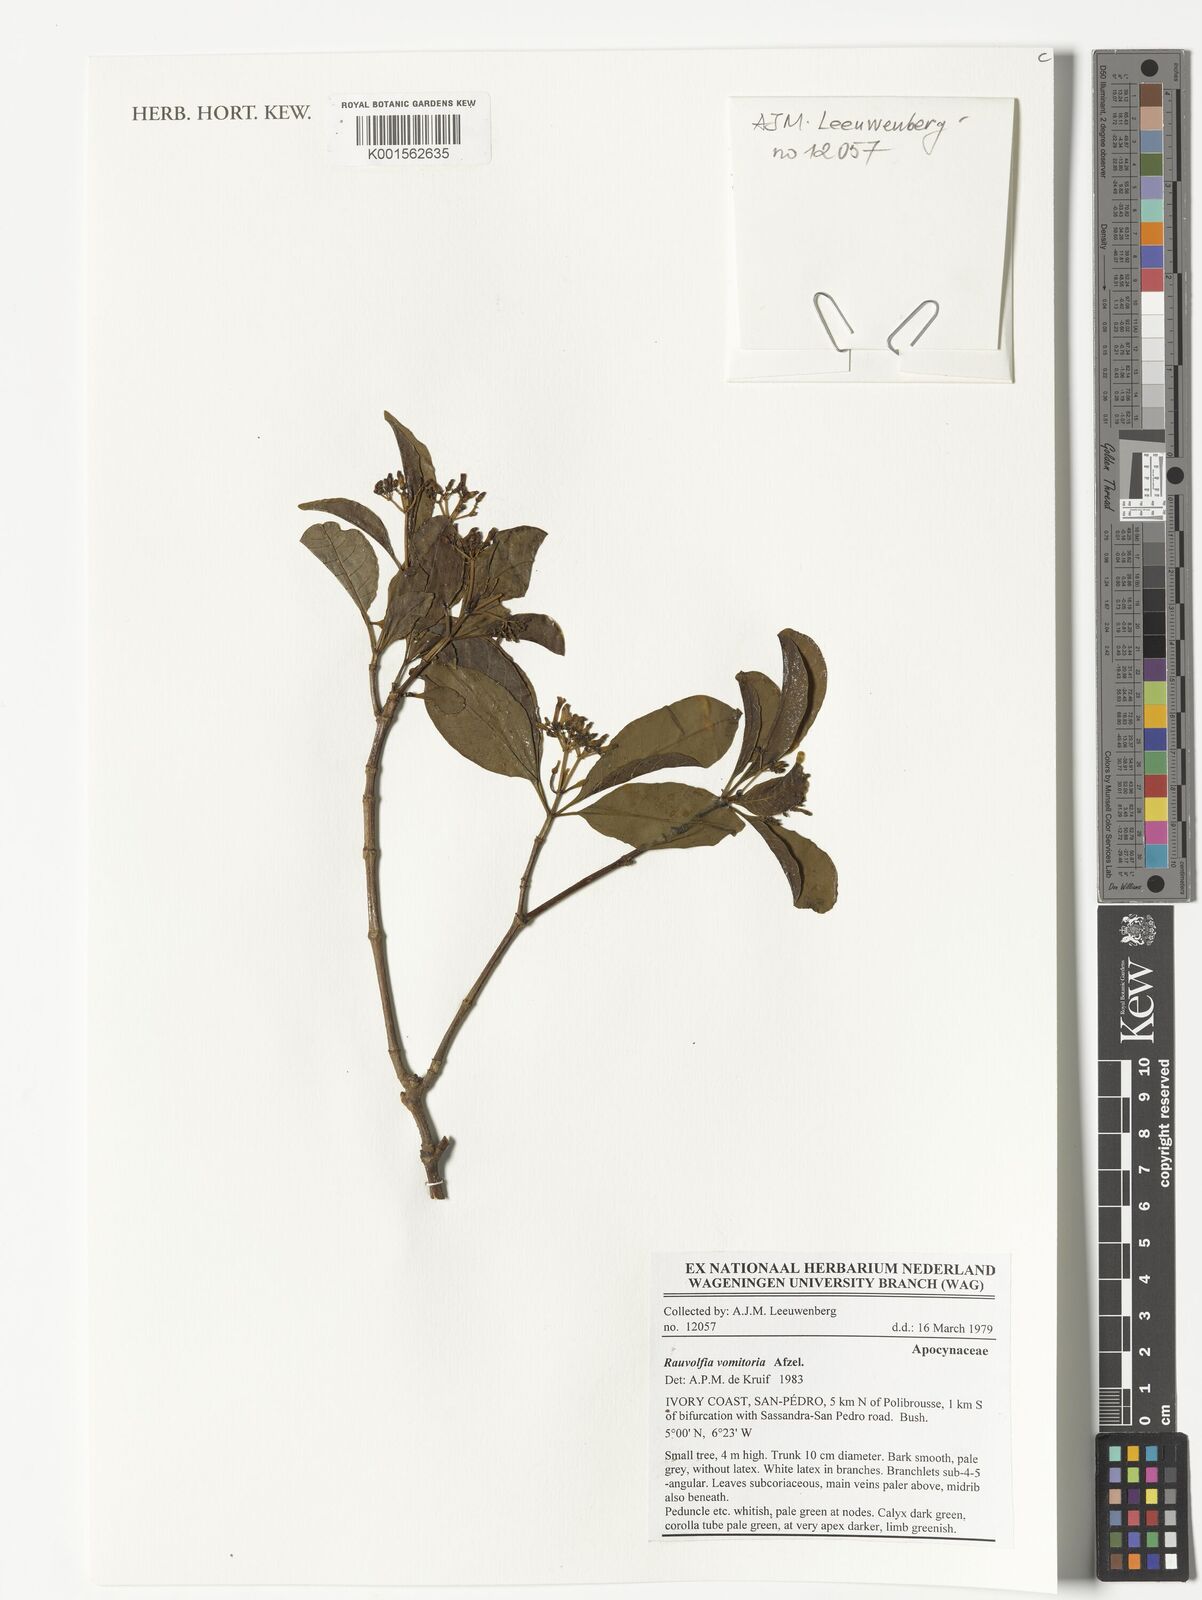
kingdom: Plantae
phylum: Tracheophyta
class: Magnoliopsida
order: Gentianales
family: Apocynaceae
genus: Rauvolfia
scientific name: Rauvolfia
